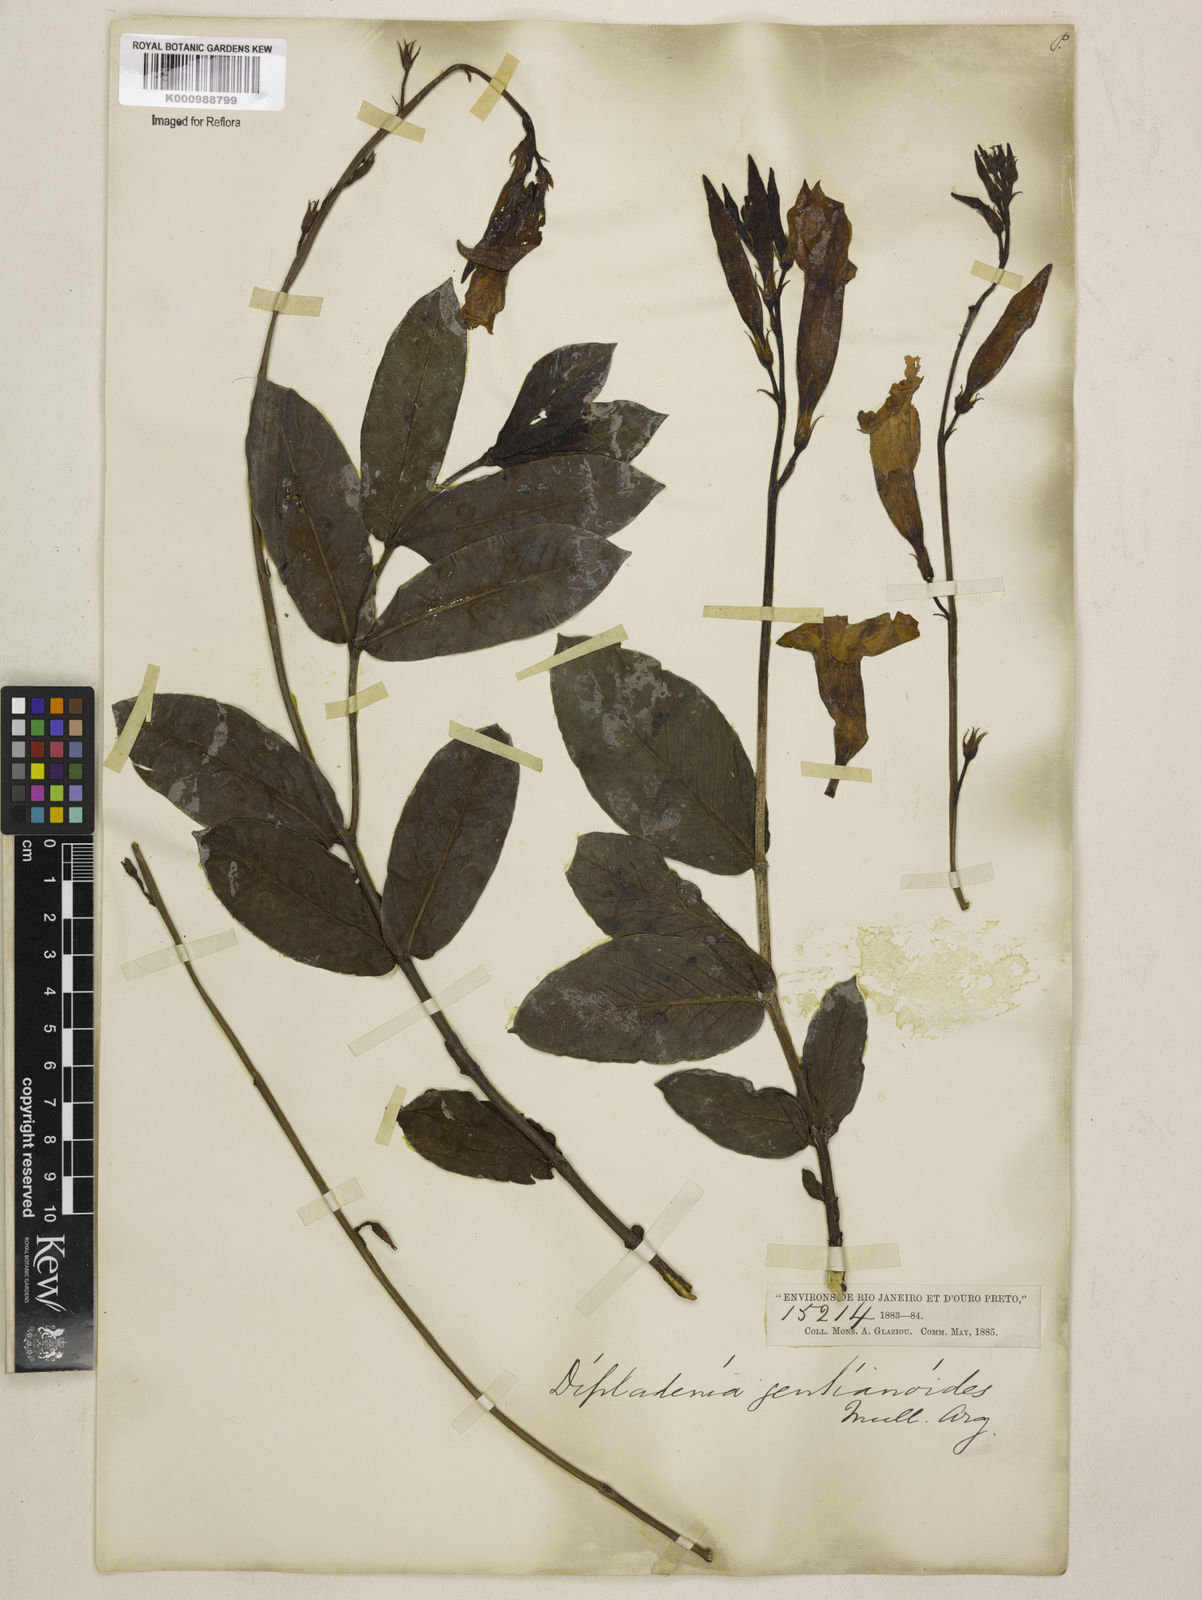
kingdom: Plantae
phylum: Tracheophyta
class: Magnoliopsida
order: Gentianales
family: Apocynaceae
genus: Mandevilla
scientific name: Mandevilla pohliana
